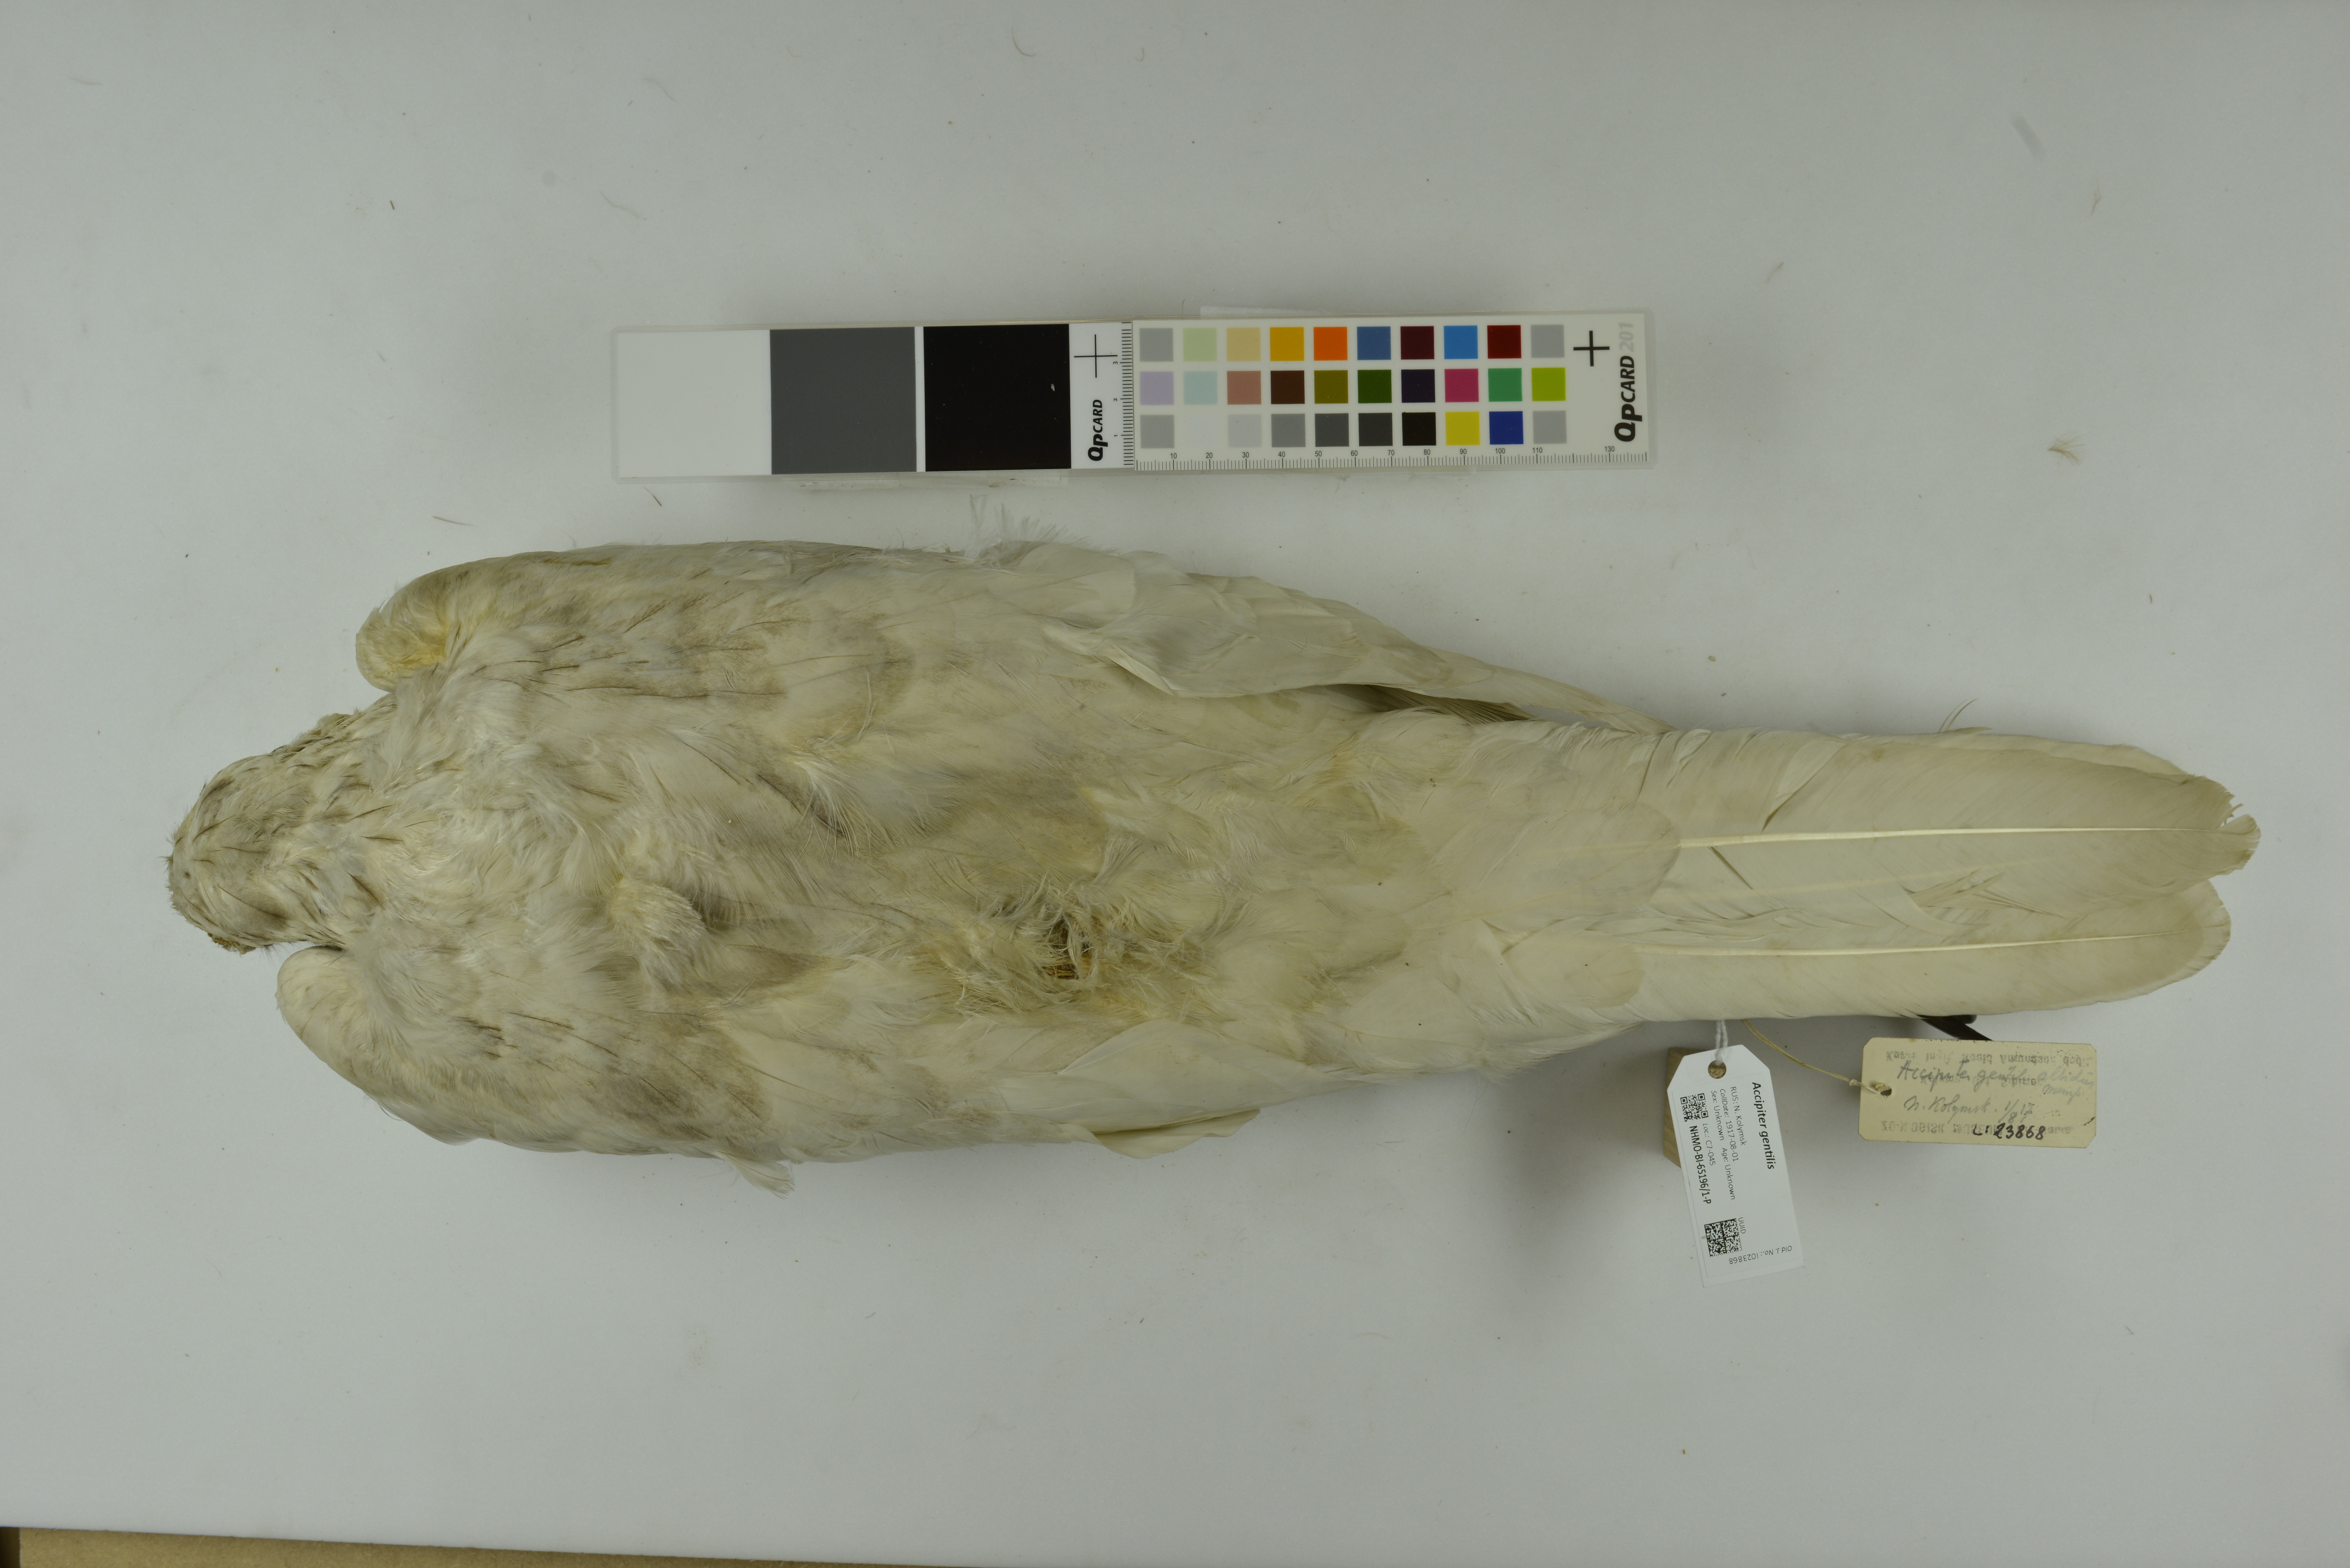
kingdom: Animalia
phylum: Chordata
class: Aves
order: Accipitriformes
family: Accipitridae
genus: Accipiter
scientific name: Accipiter gentilis
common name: Northern goshawk
